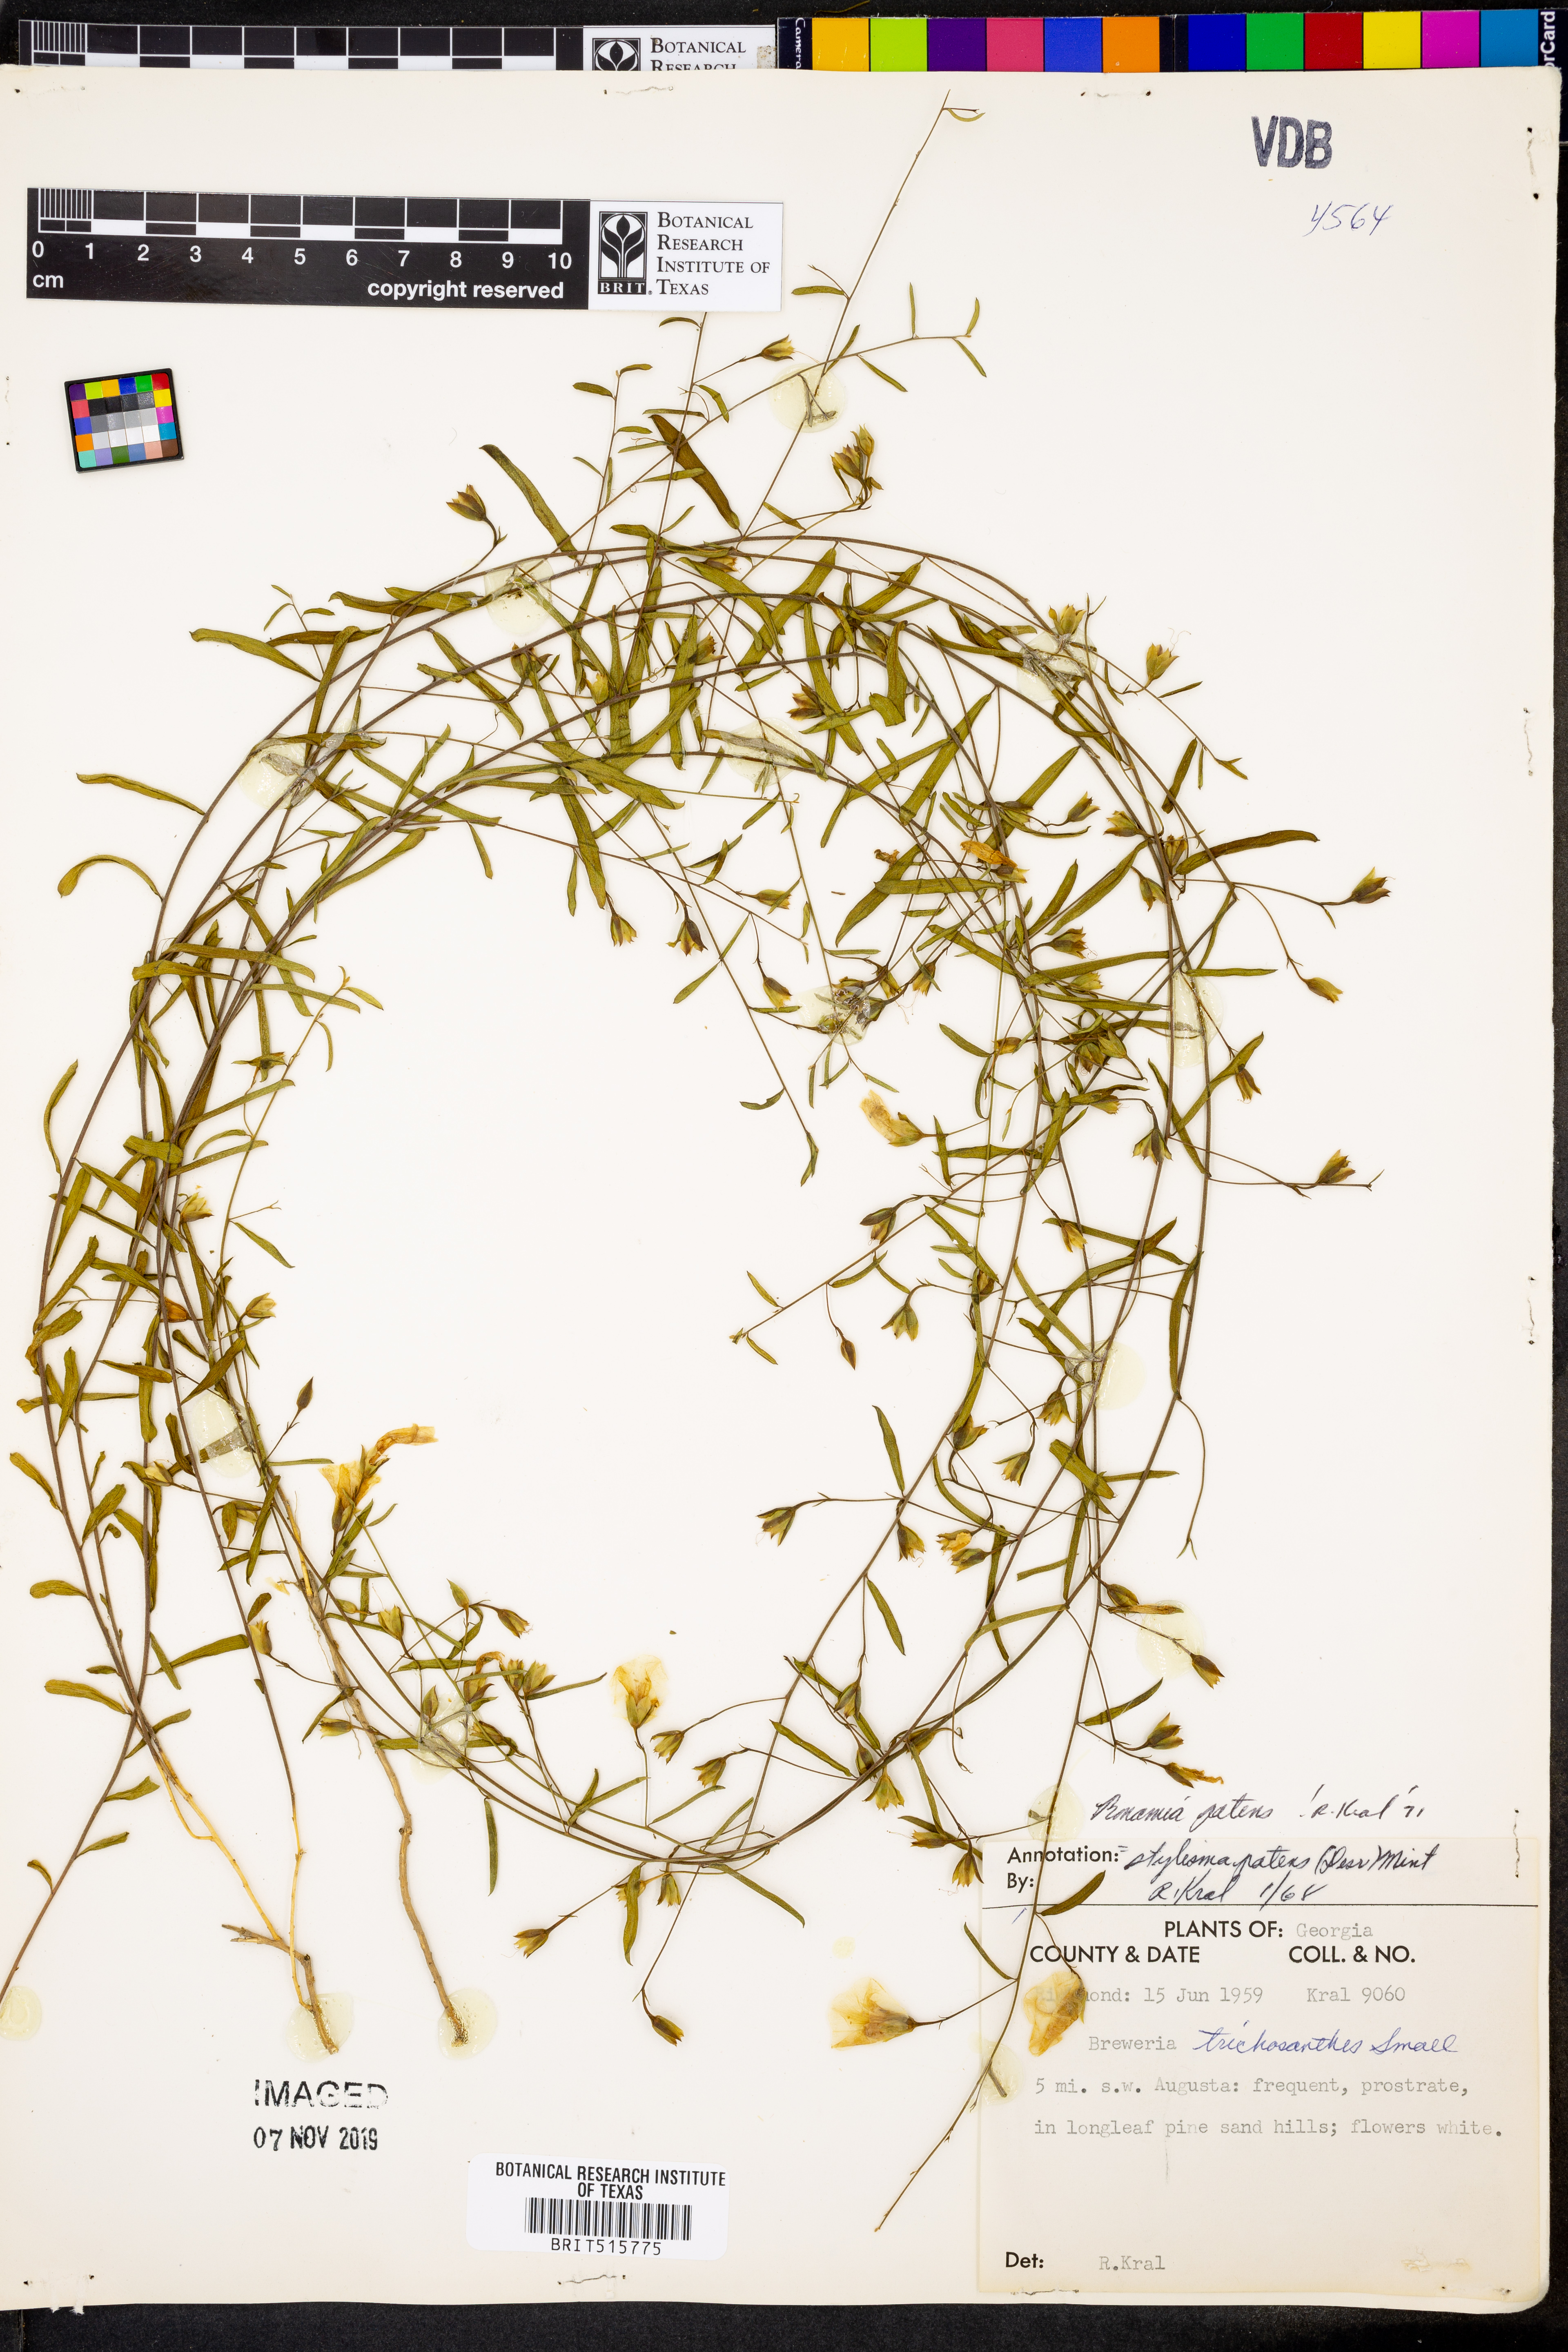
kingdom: Plantae
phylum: Tracheophyta
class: Magnoliopsida
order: Solanales
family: Convolvulaceae
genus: Stylisma
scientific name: Stylisma patens
